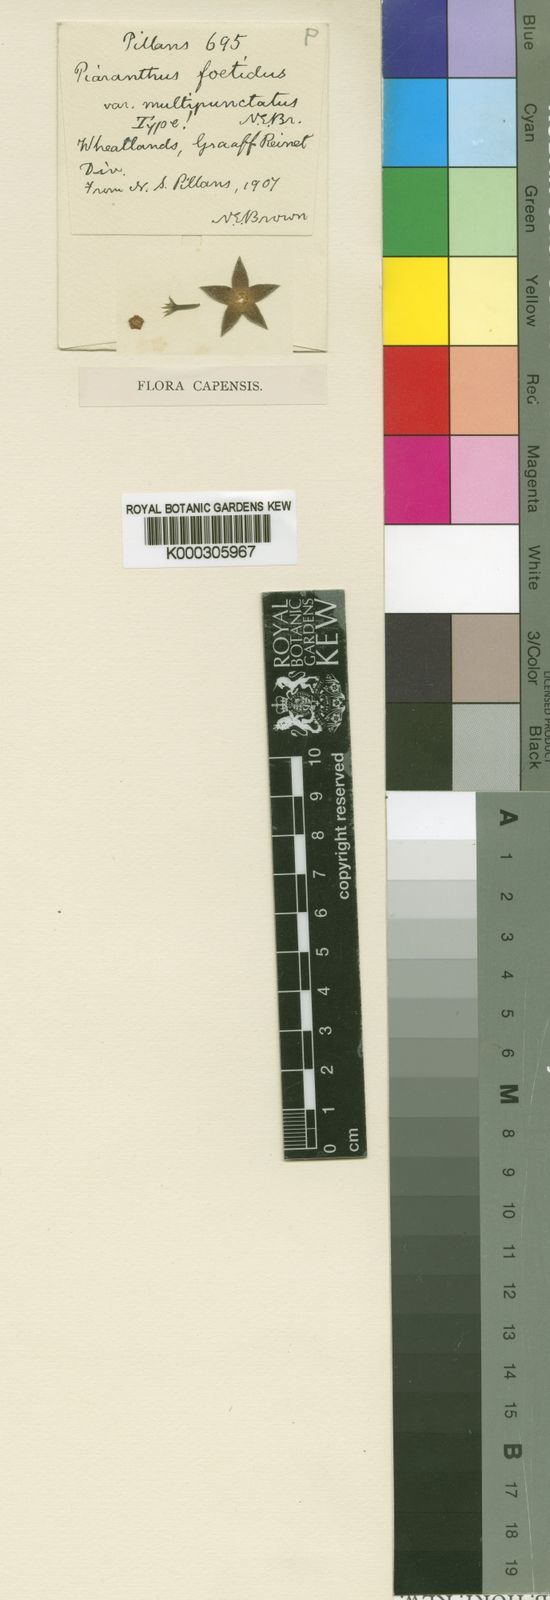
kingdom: Plantae
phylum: Tracheophyta
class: Magnoliopsida
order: Gentianales
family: Apocynaceae
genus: Ceropegia
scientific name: Ceropegia geminata
